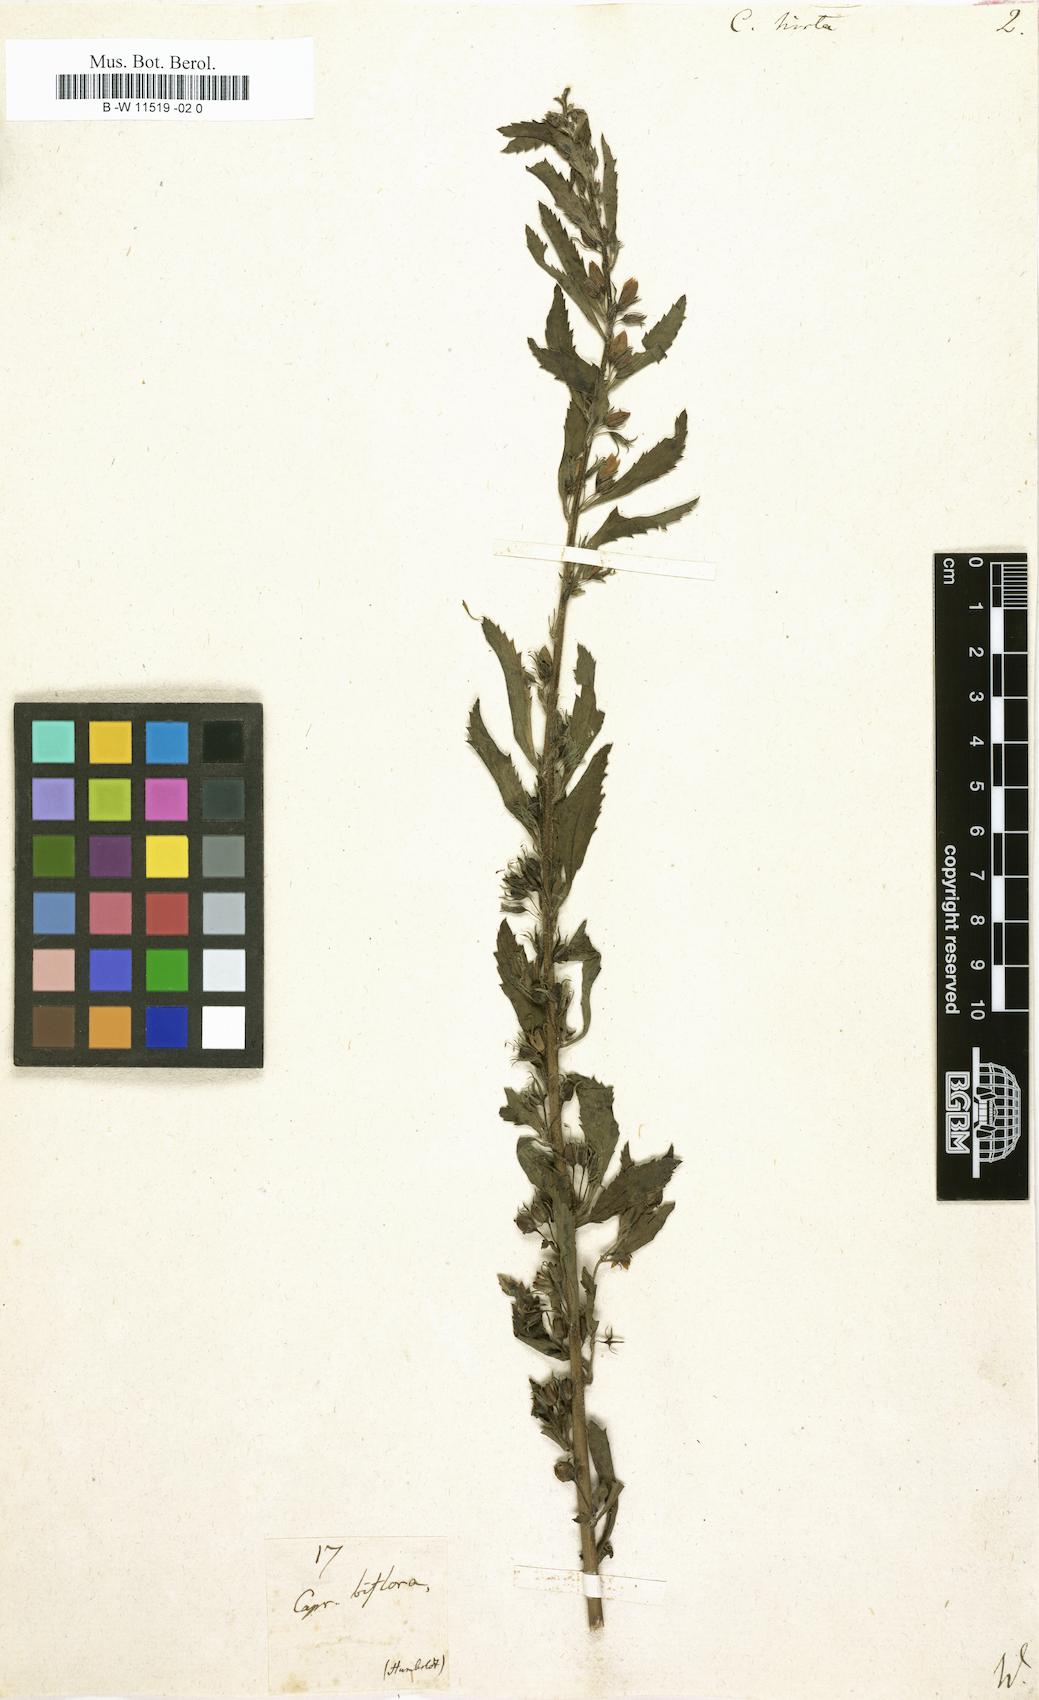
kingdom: Plantae
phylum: Tracheophyta
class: Magnoliopsida
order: Lamiales
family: Scrophulariaceae
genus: Capraria
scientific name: Capraria biflora
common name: Goatweed
